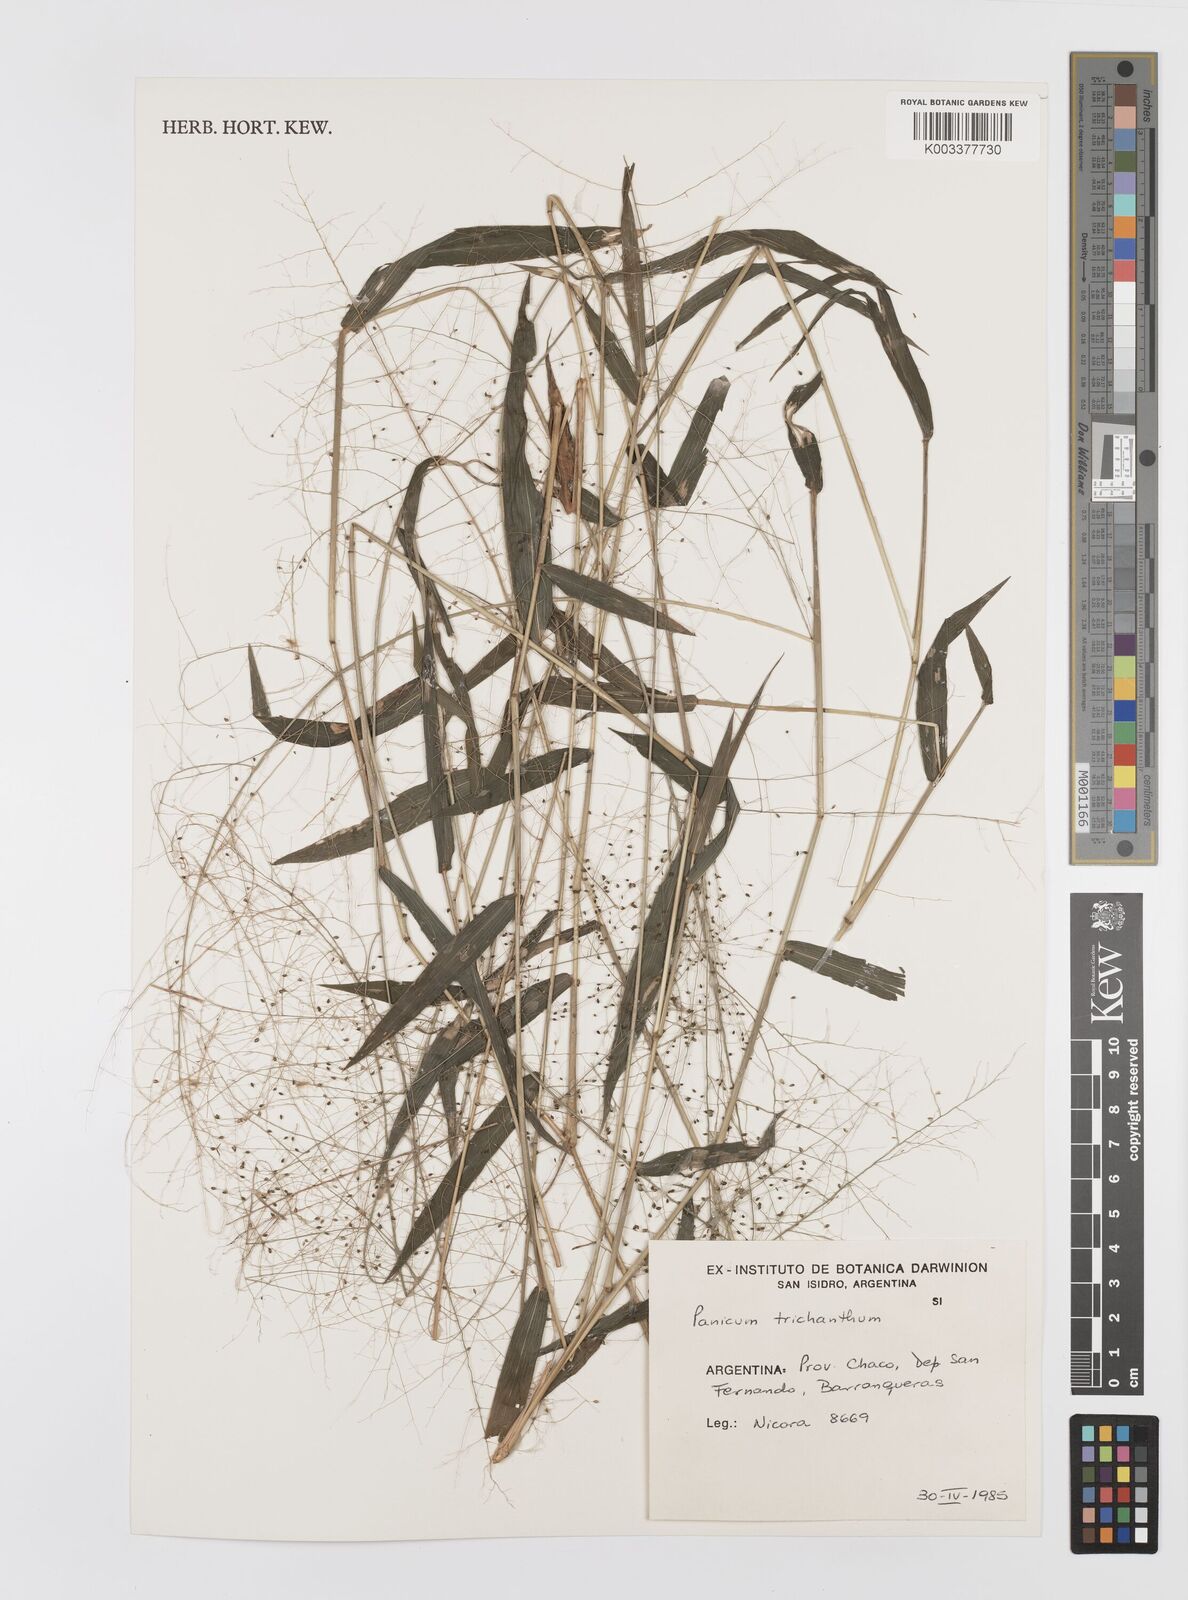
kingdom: Plantae
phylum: Tracheophyta
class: Liliopsida
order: Poales
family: Poaceae
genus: Panicum
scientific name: Panicum trichanthum
